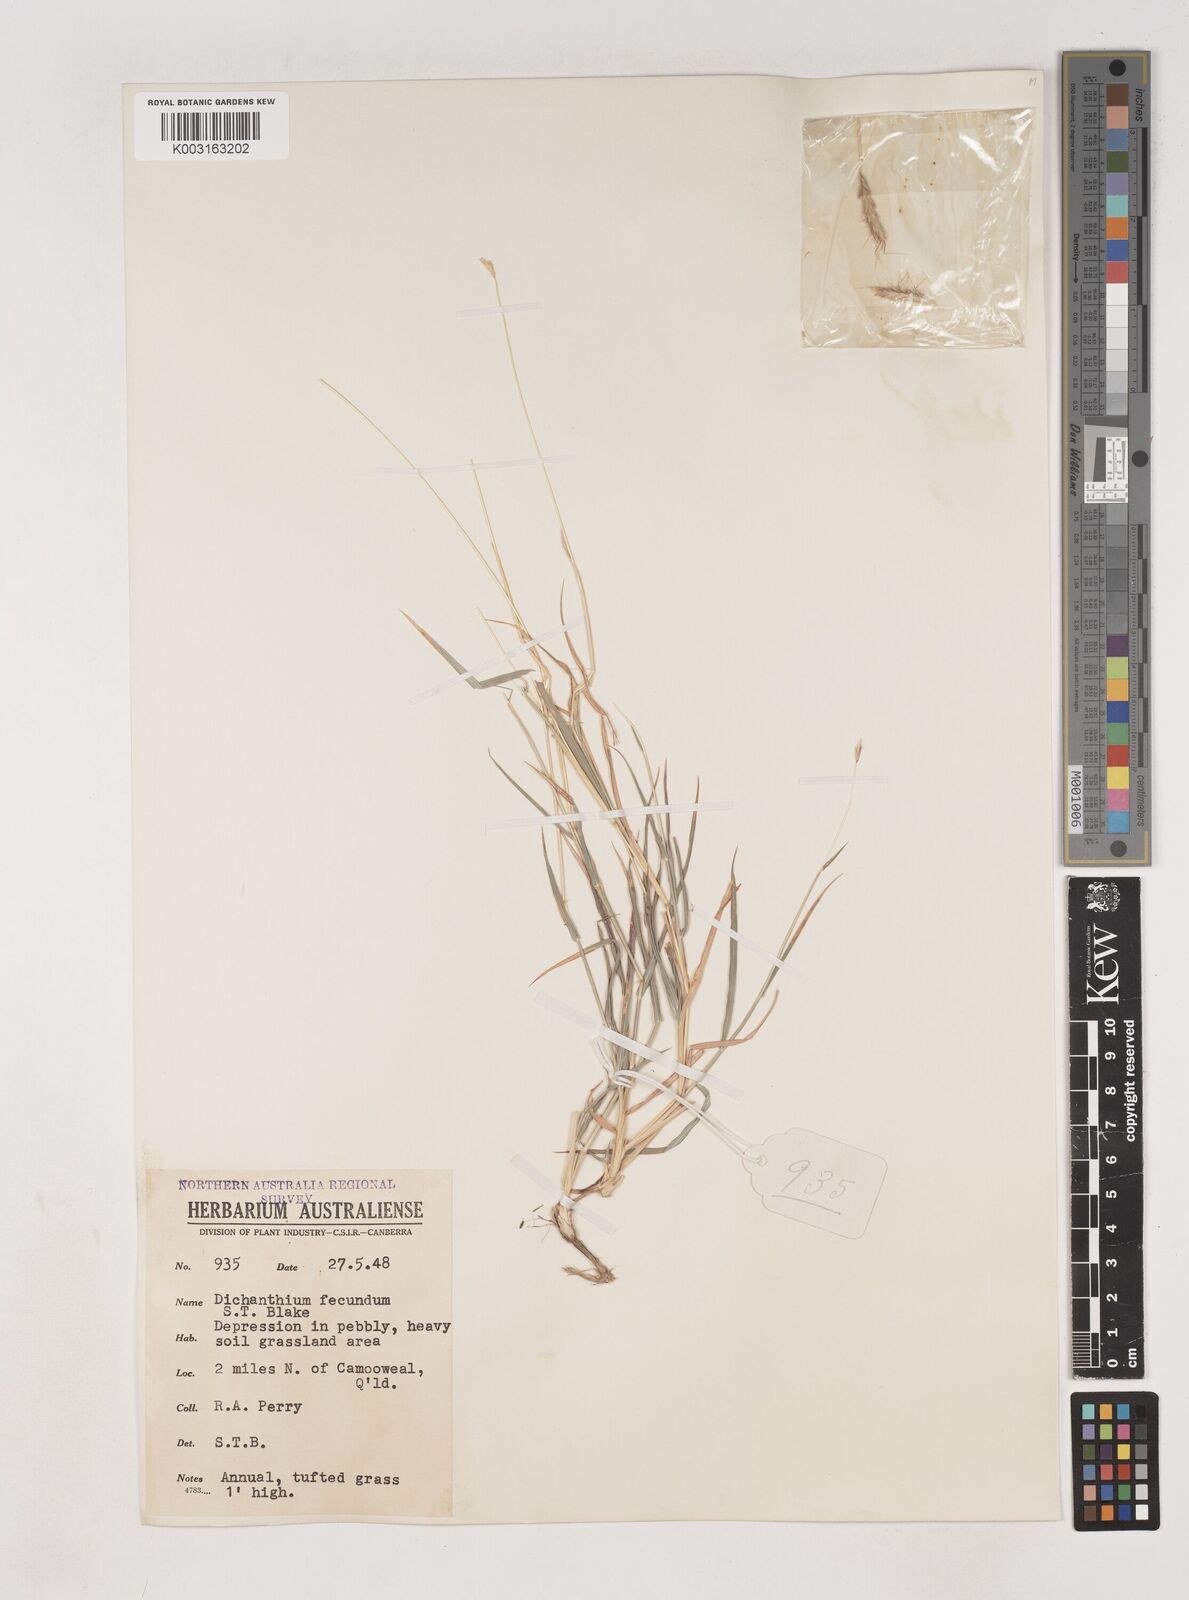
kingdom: Plantae
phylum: Tracheophyta
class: Liliopsida
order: Poales
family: Poaceae
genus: Dichanthium
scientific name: Dichanthium fecundum
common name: Bundle-bundle
